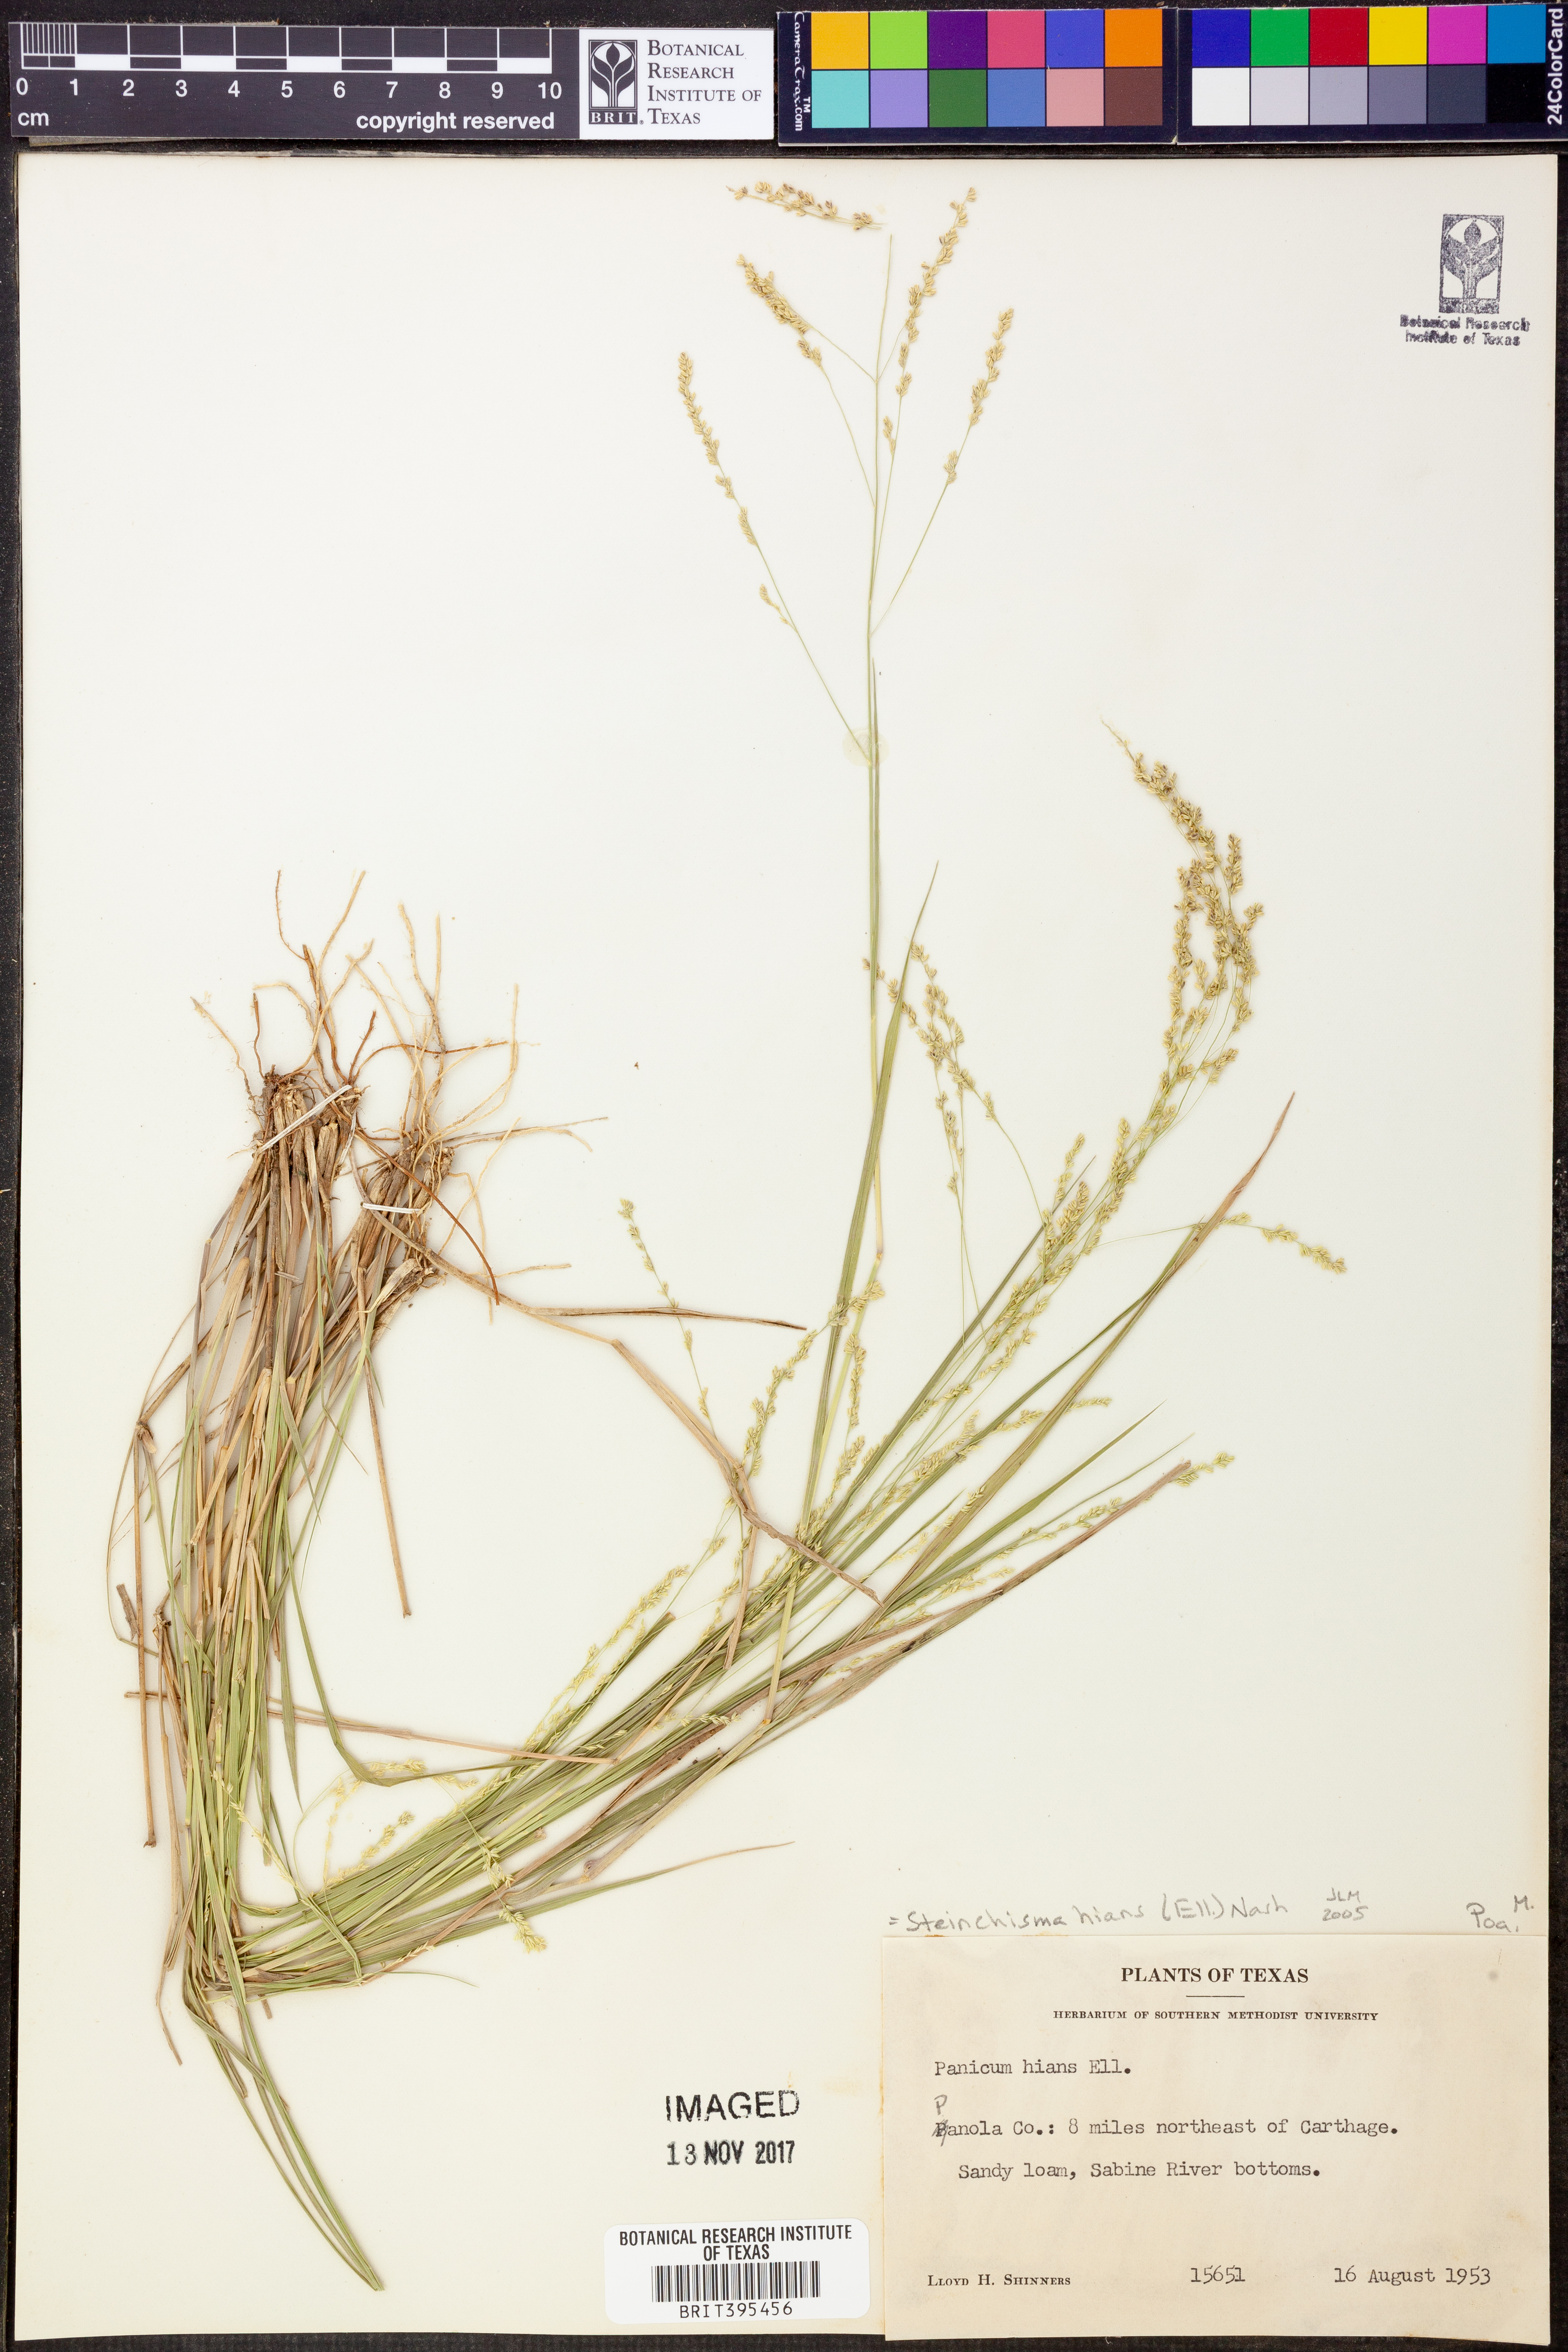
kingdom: Plantae
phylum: Tracheophyta
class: Liliopsida
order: Poales
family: Poaceae
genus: Steinchisma
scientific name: Steinchisma hians
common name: Gaping panic grass
